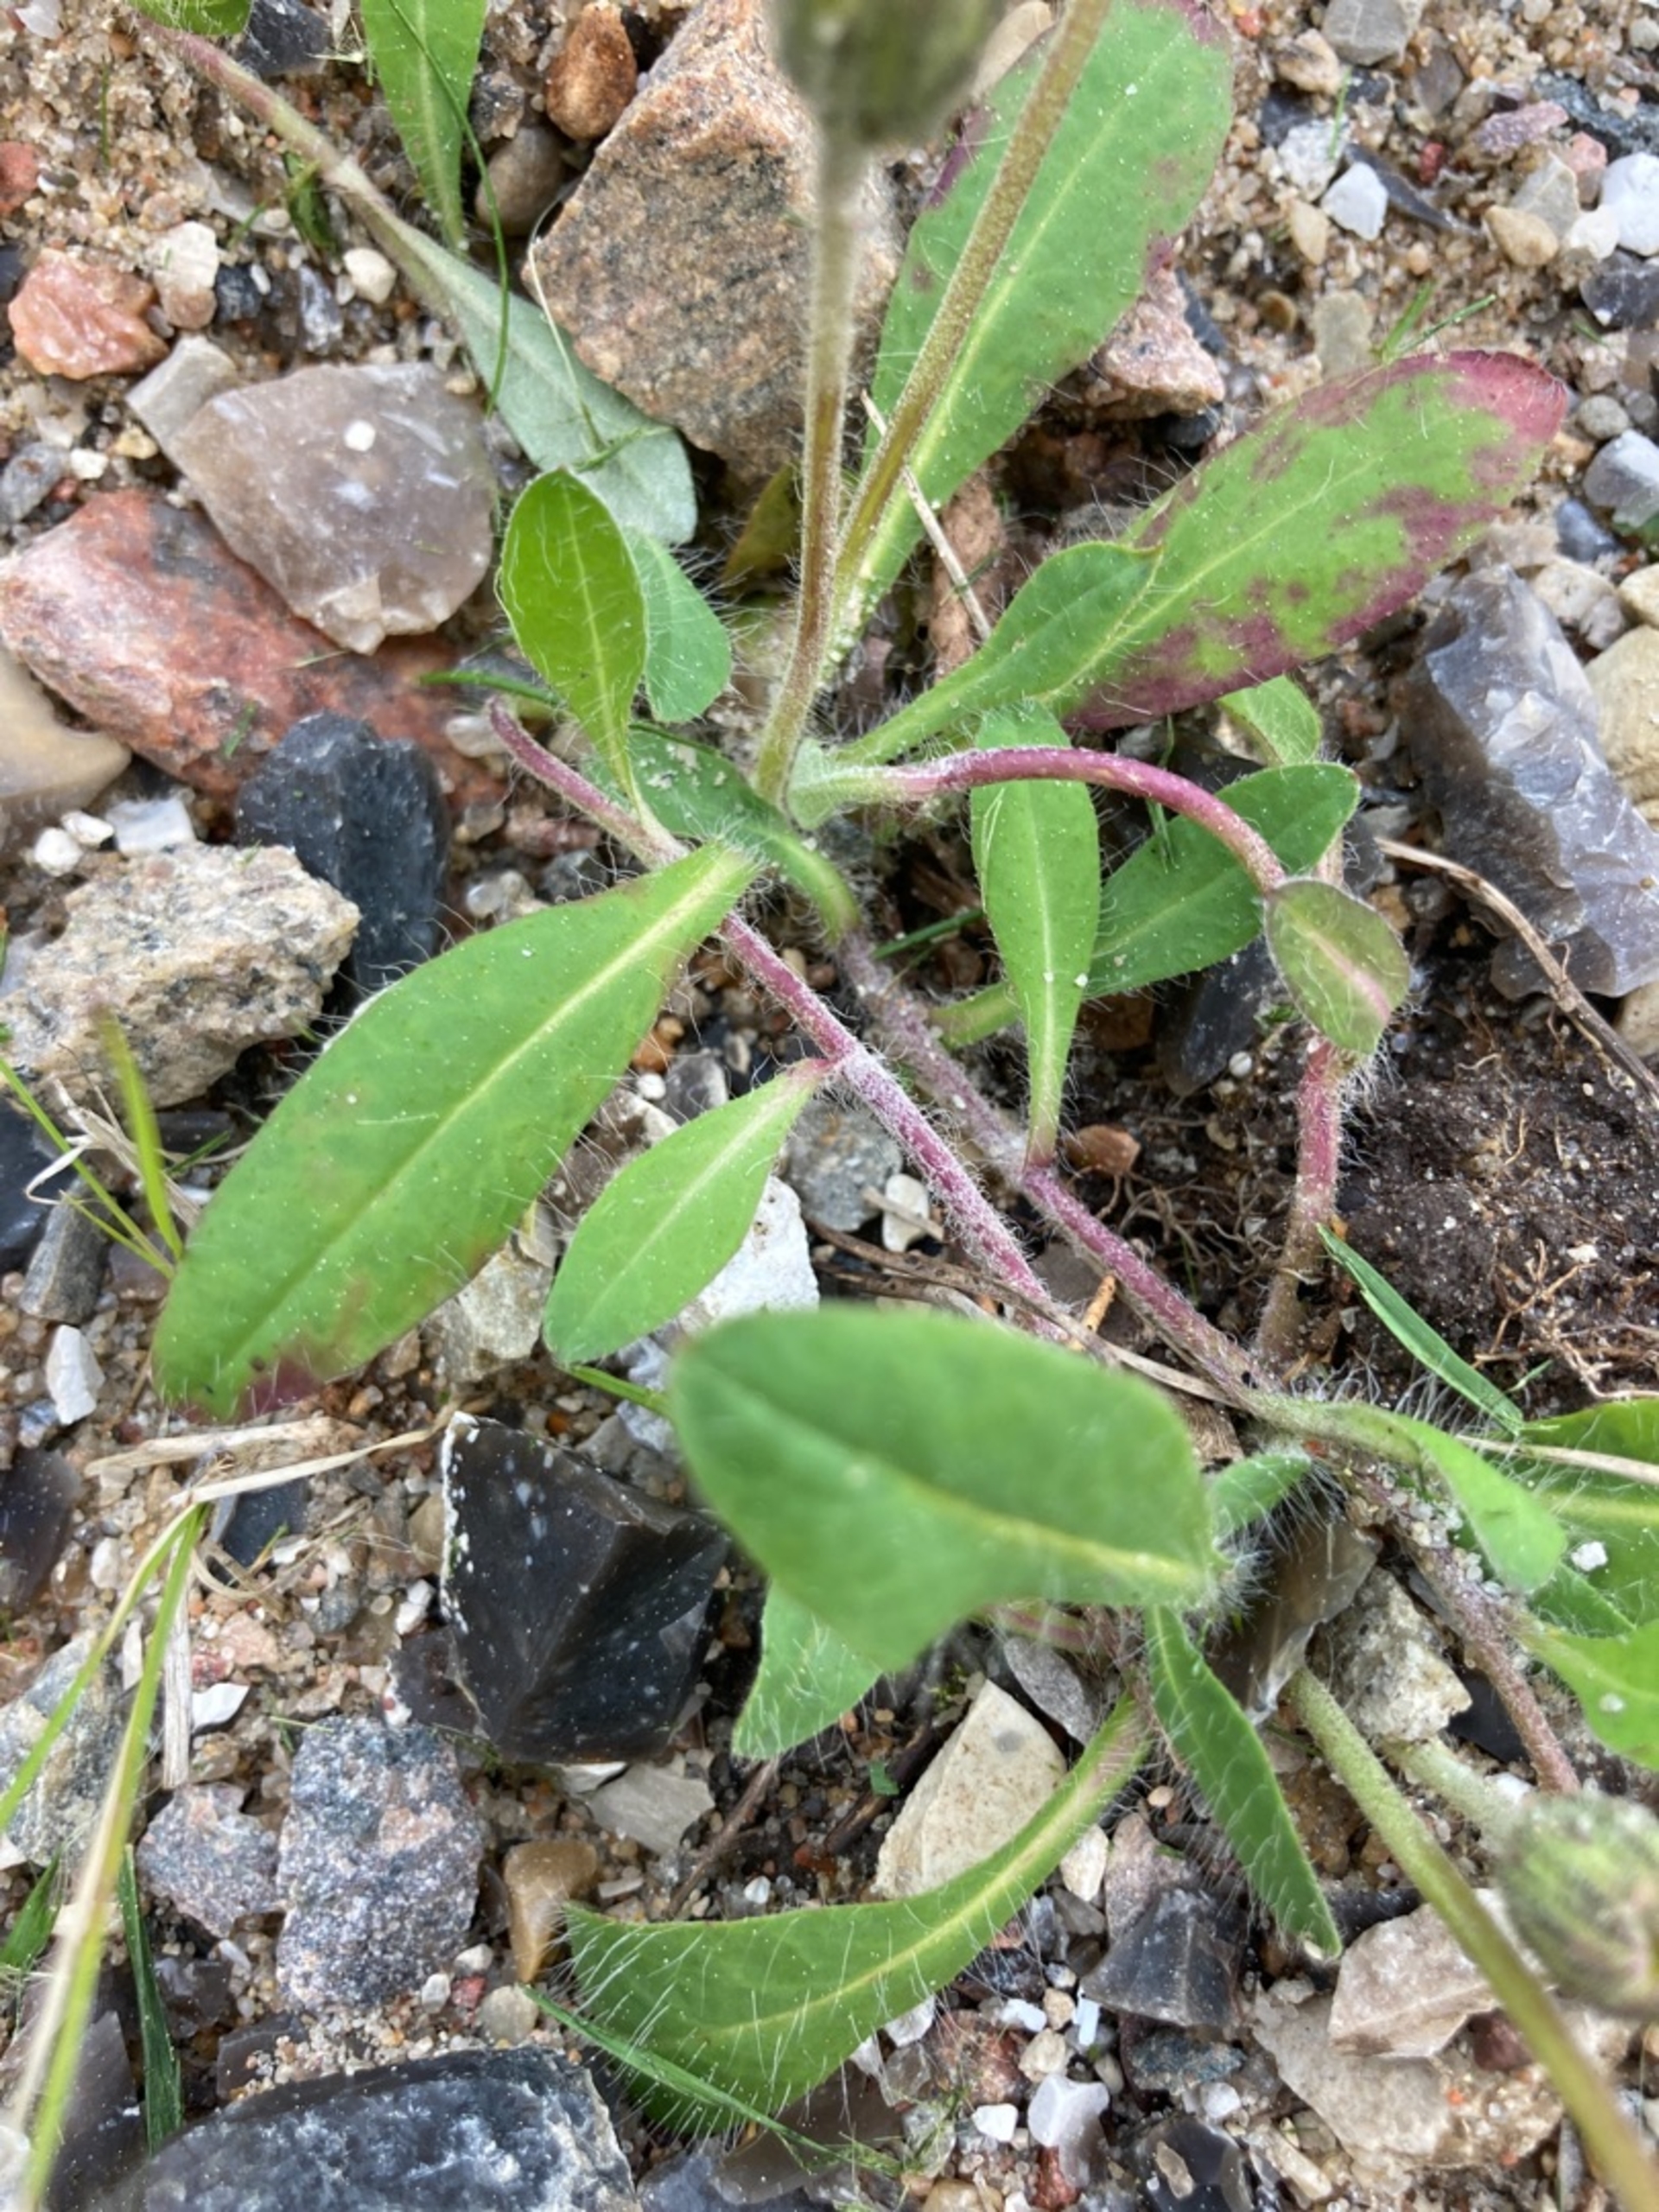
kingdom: Plantae
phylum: Tracheophyta
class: Magnoliopsida
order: Asterales
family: Asteraceae
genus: Pilosella
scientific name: Pilosella officinarum
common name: Håret høgeurt
